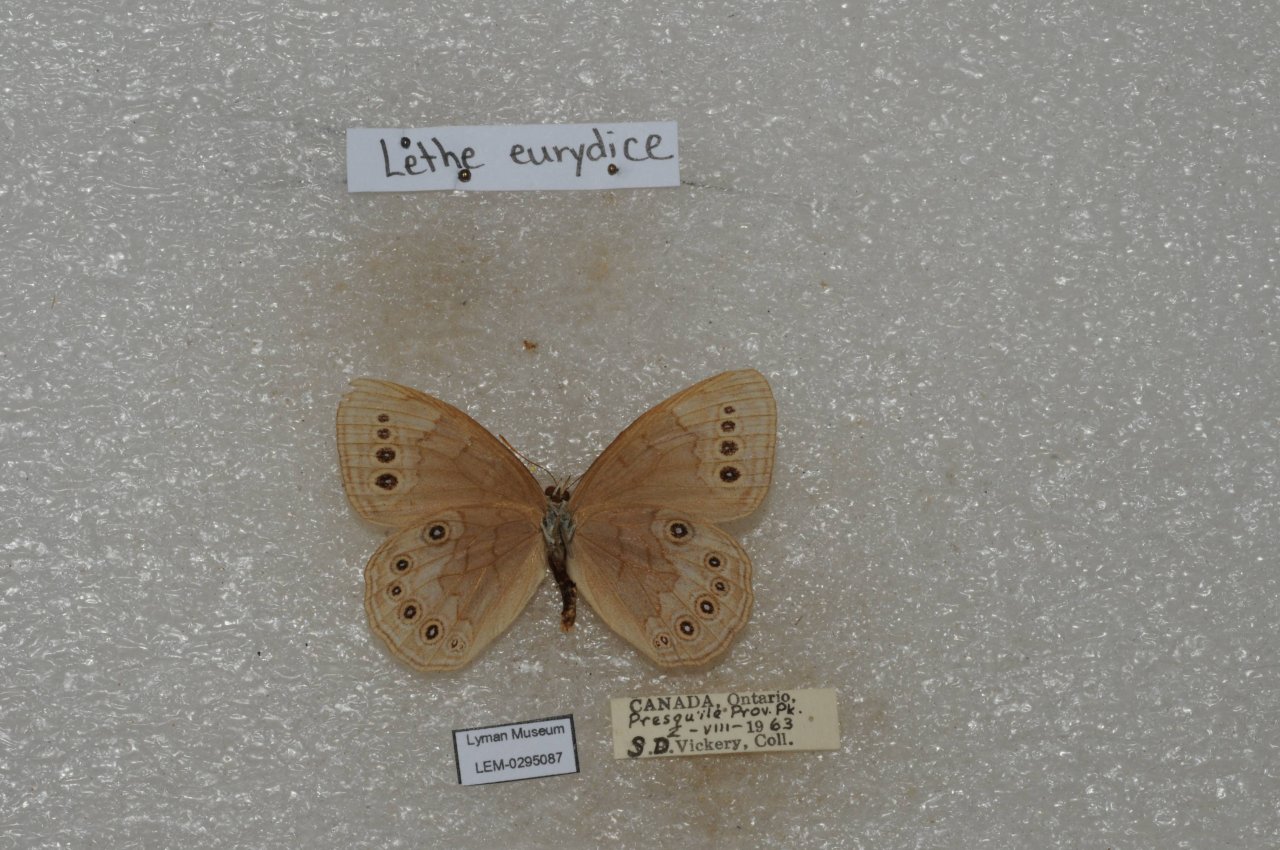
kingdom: Animalia
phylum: Arthropoda
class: Insecta
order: Lepidoptera
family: Nymphalidae
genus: Lethe
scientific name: Lethe eurydice
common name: Eyed Brown
